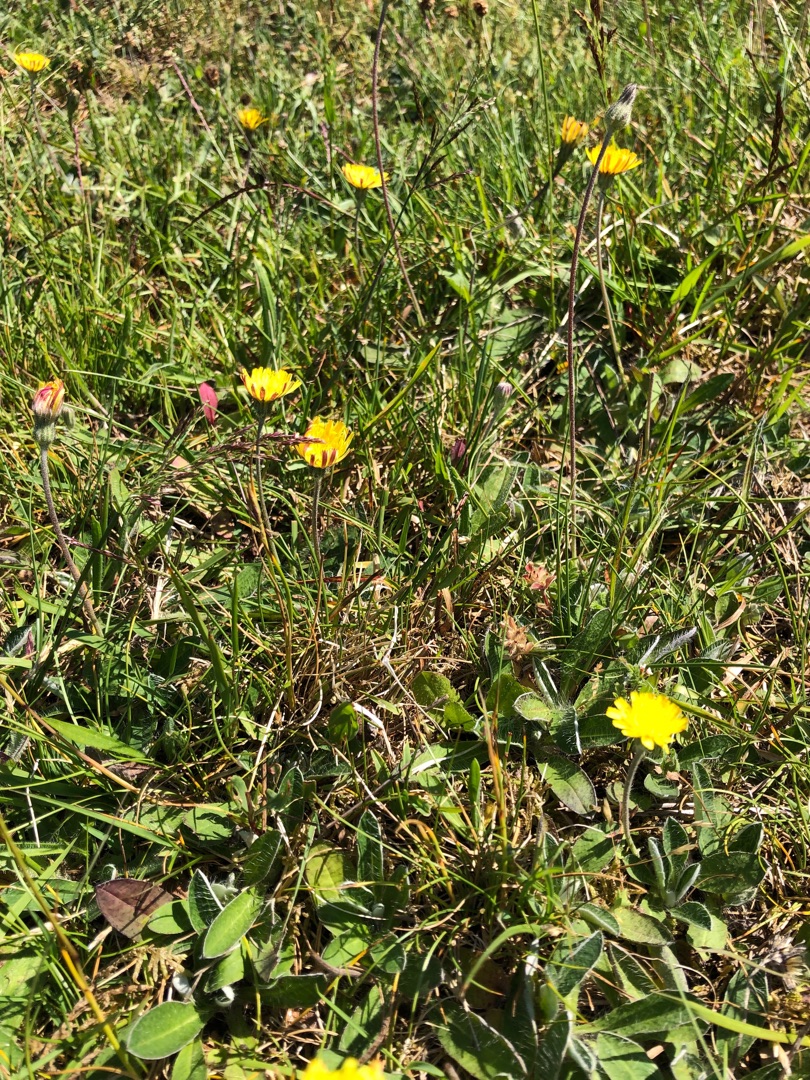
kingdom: Plantae
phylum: Tracheophyta
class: Magnoliopsida
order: Asterales
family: Asteraceae
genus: Pilosella
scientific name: Pilosella officinarum
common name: Håret høgeurt
